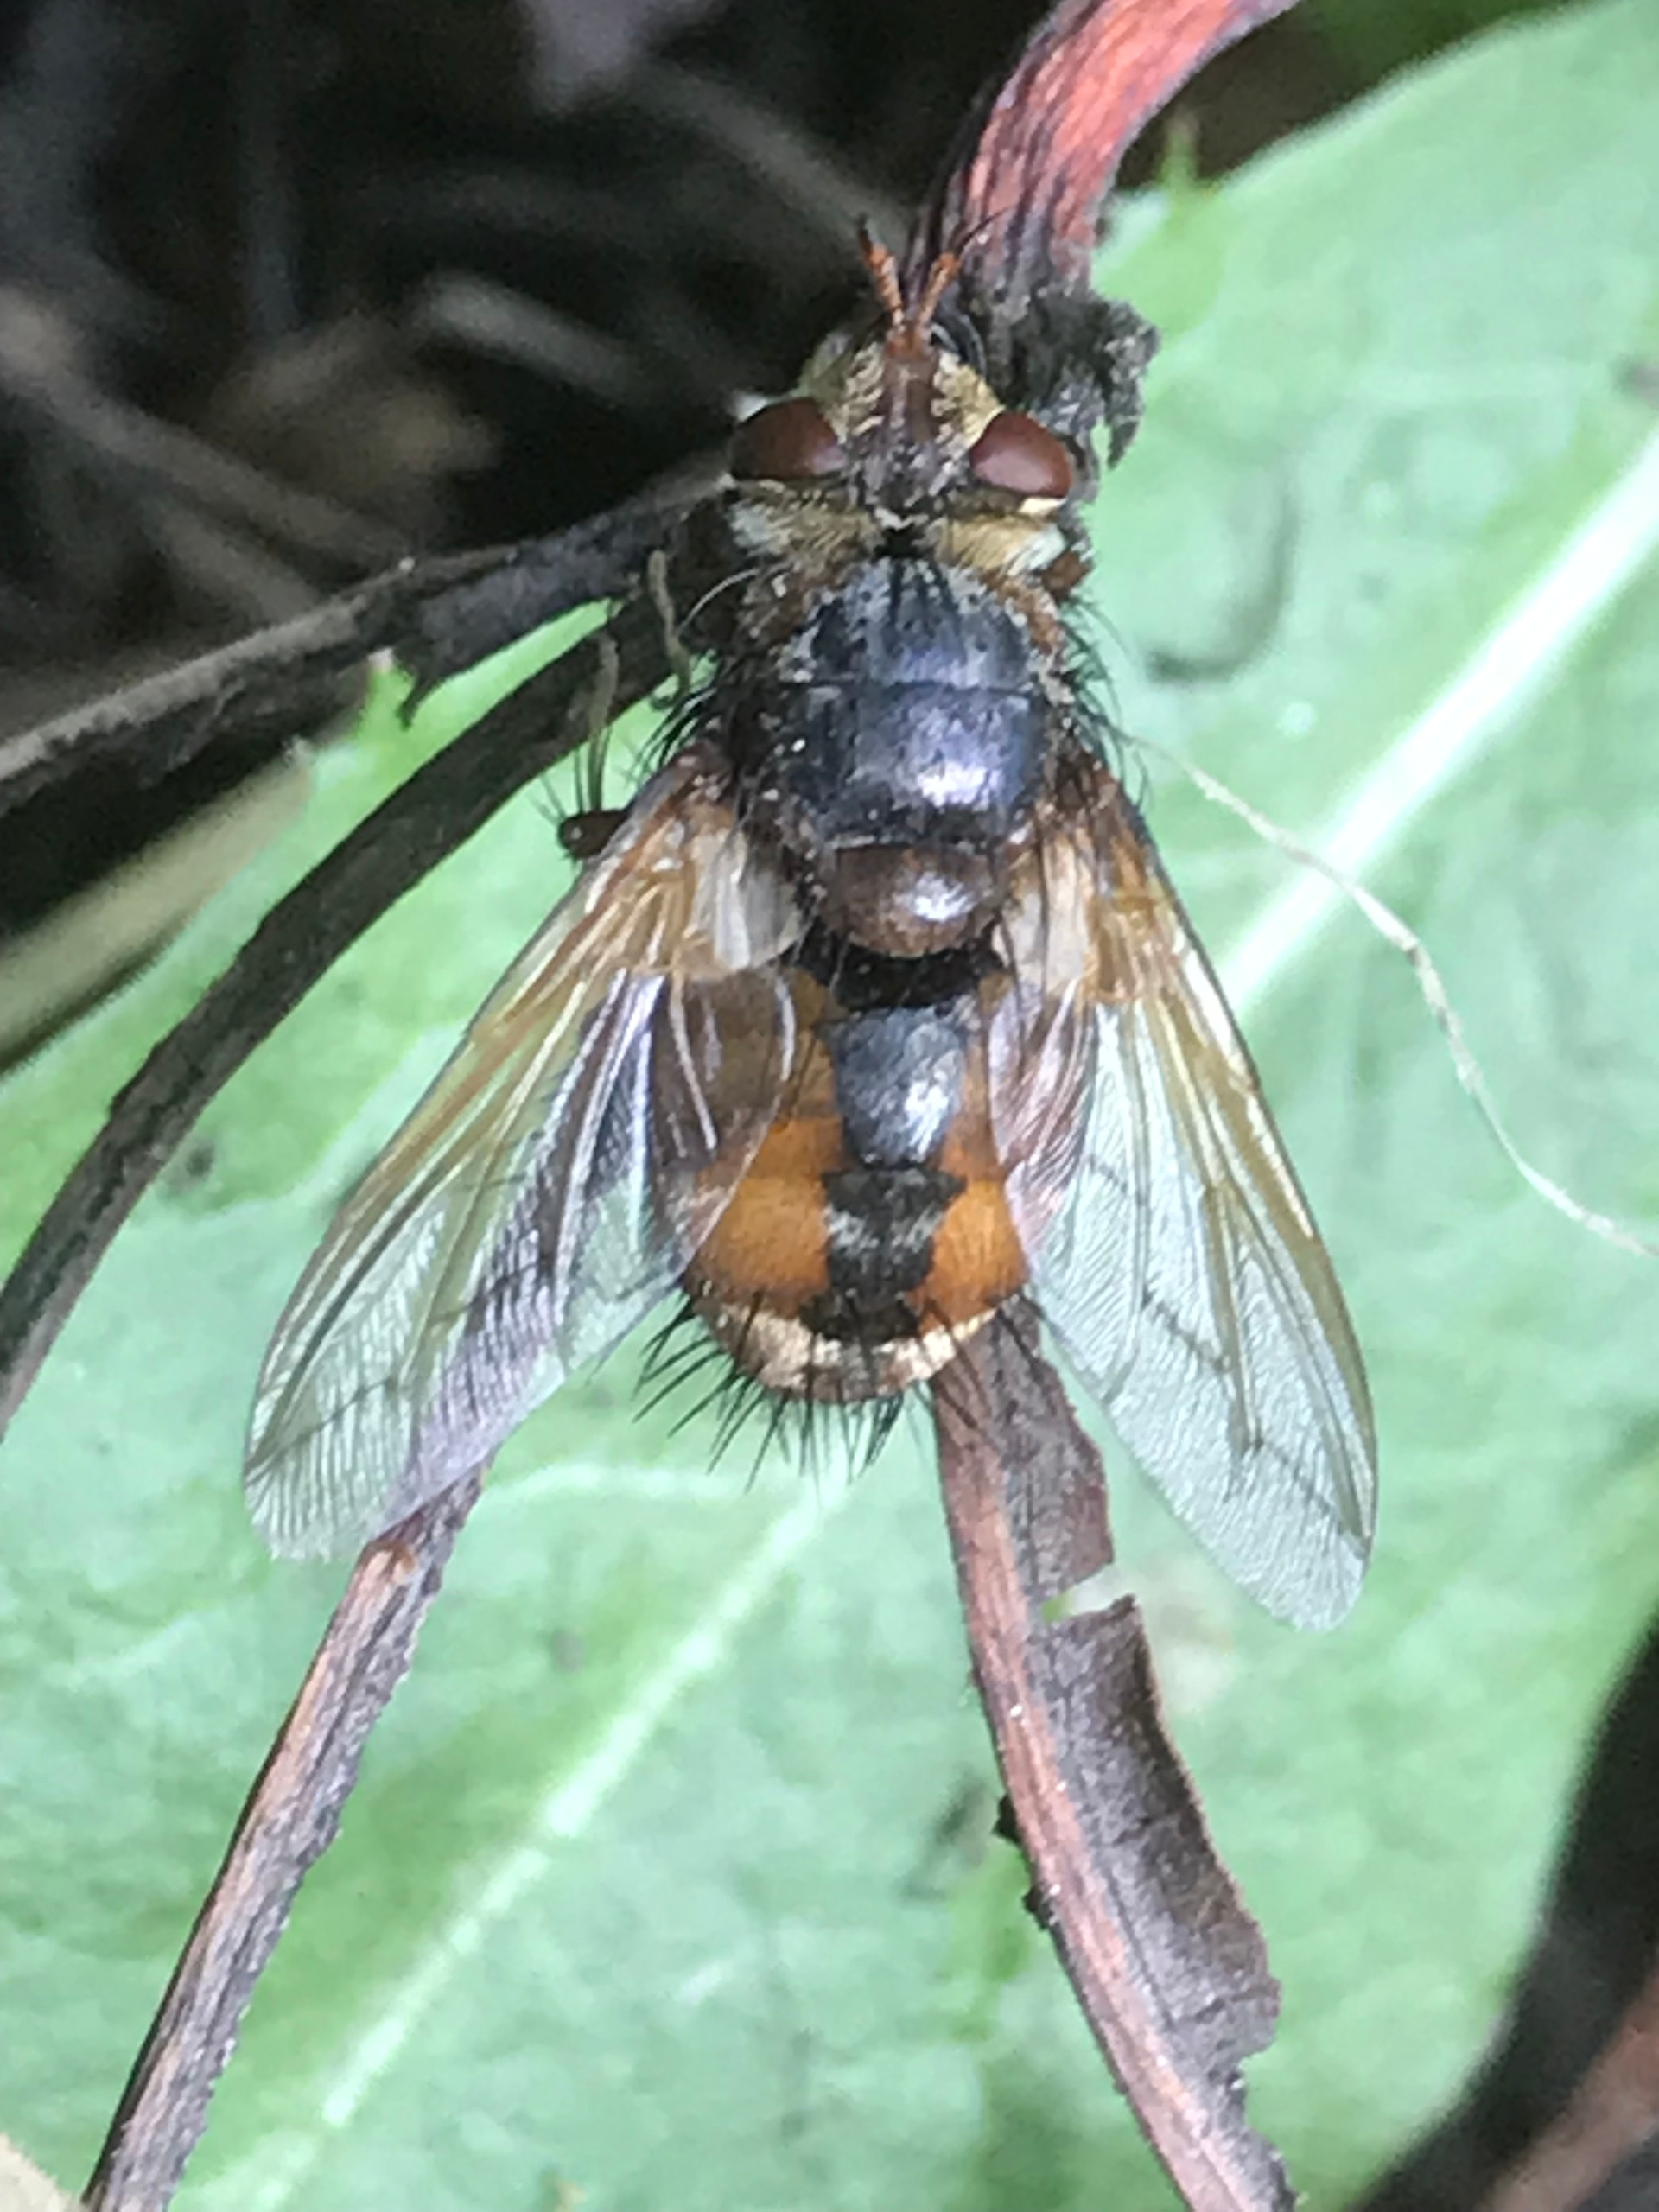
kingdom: Animalia
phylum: Arthropoda
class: Insecta
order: Diptera
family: Tachinidae
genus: Tachina
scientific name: Tachina fera
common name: Mellemfluen oskar
